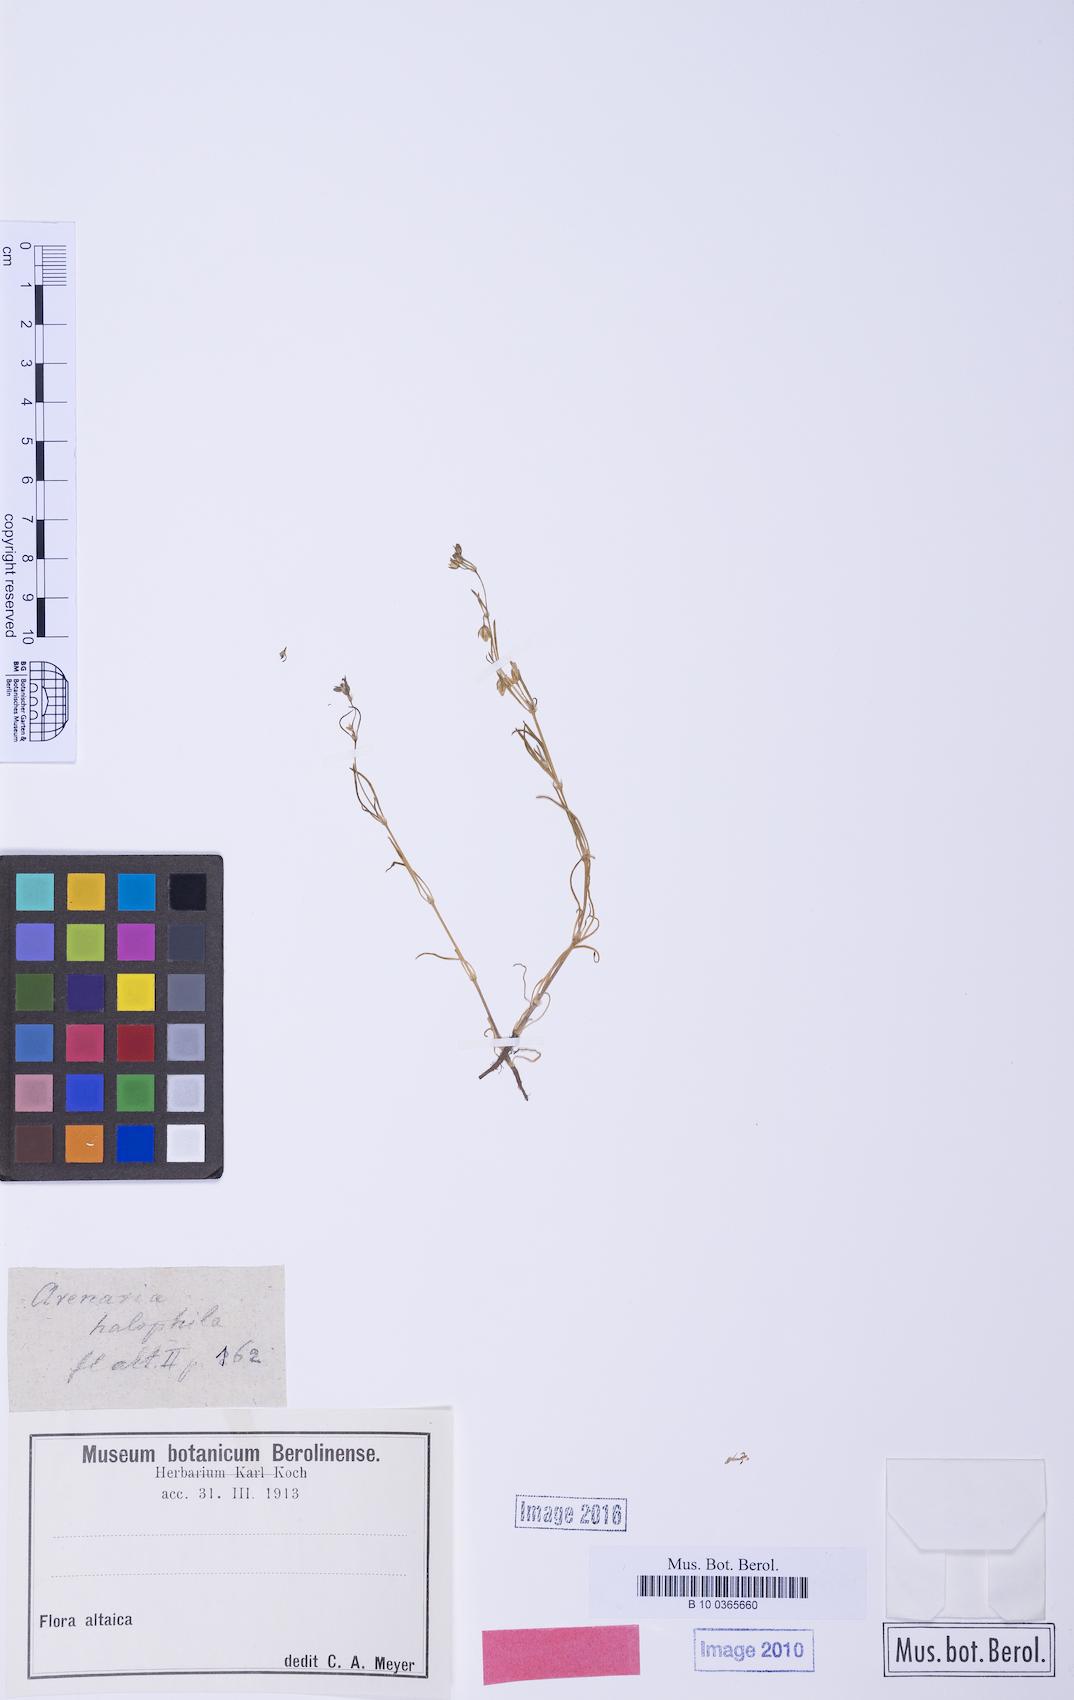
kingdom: Plantae
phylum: Tracheophyta
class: Magnoliopsida
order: Caryophyllales
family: Caryophyllaceae
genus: Spergularia
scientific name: Spergularia marina
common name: Lesser sea-spurrey
